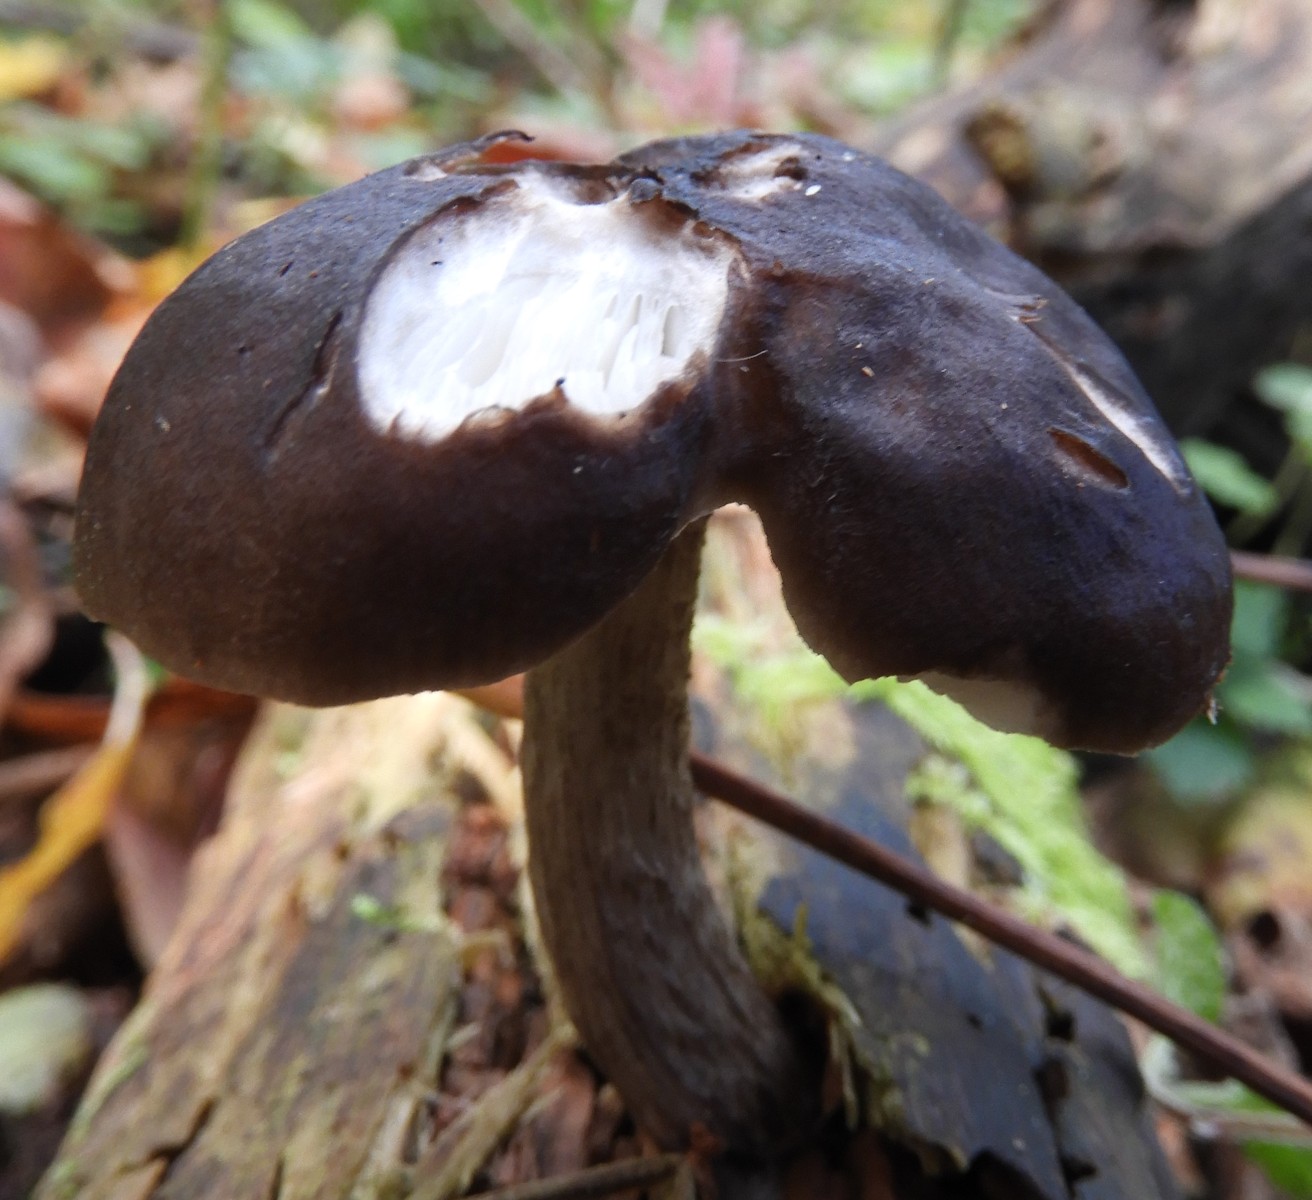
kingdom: Fungi
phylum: Basidiomycota
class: Agaricomycetes
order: Agaricales
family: Pluteaceae
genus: Pluteus
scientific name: Pluteus cervinus
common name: sodfarvet skærmhat
